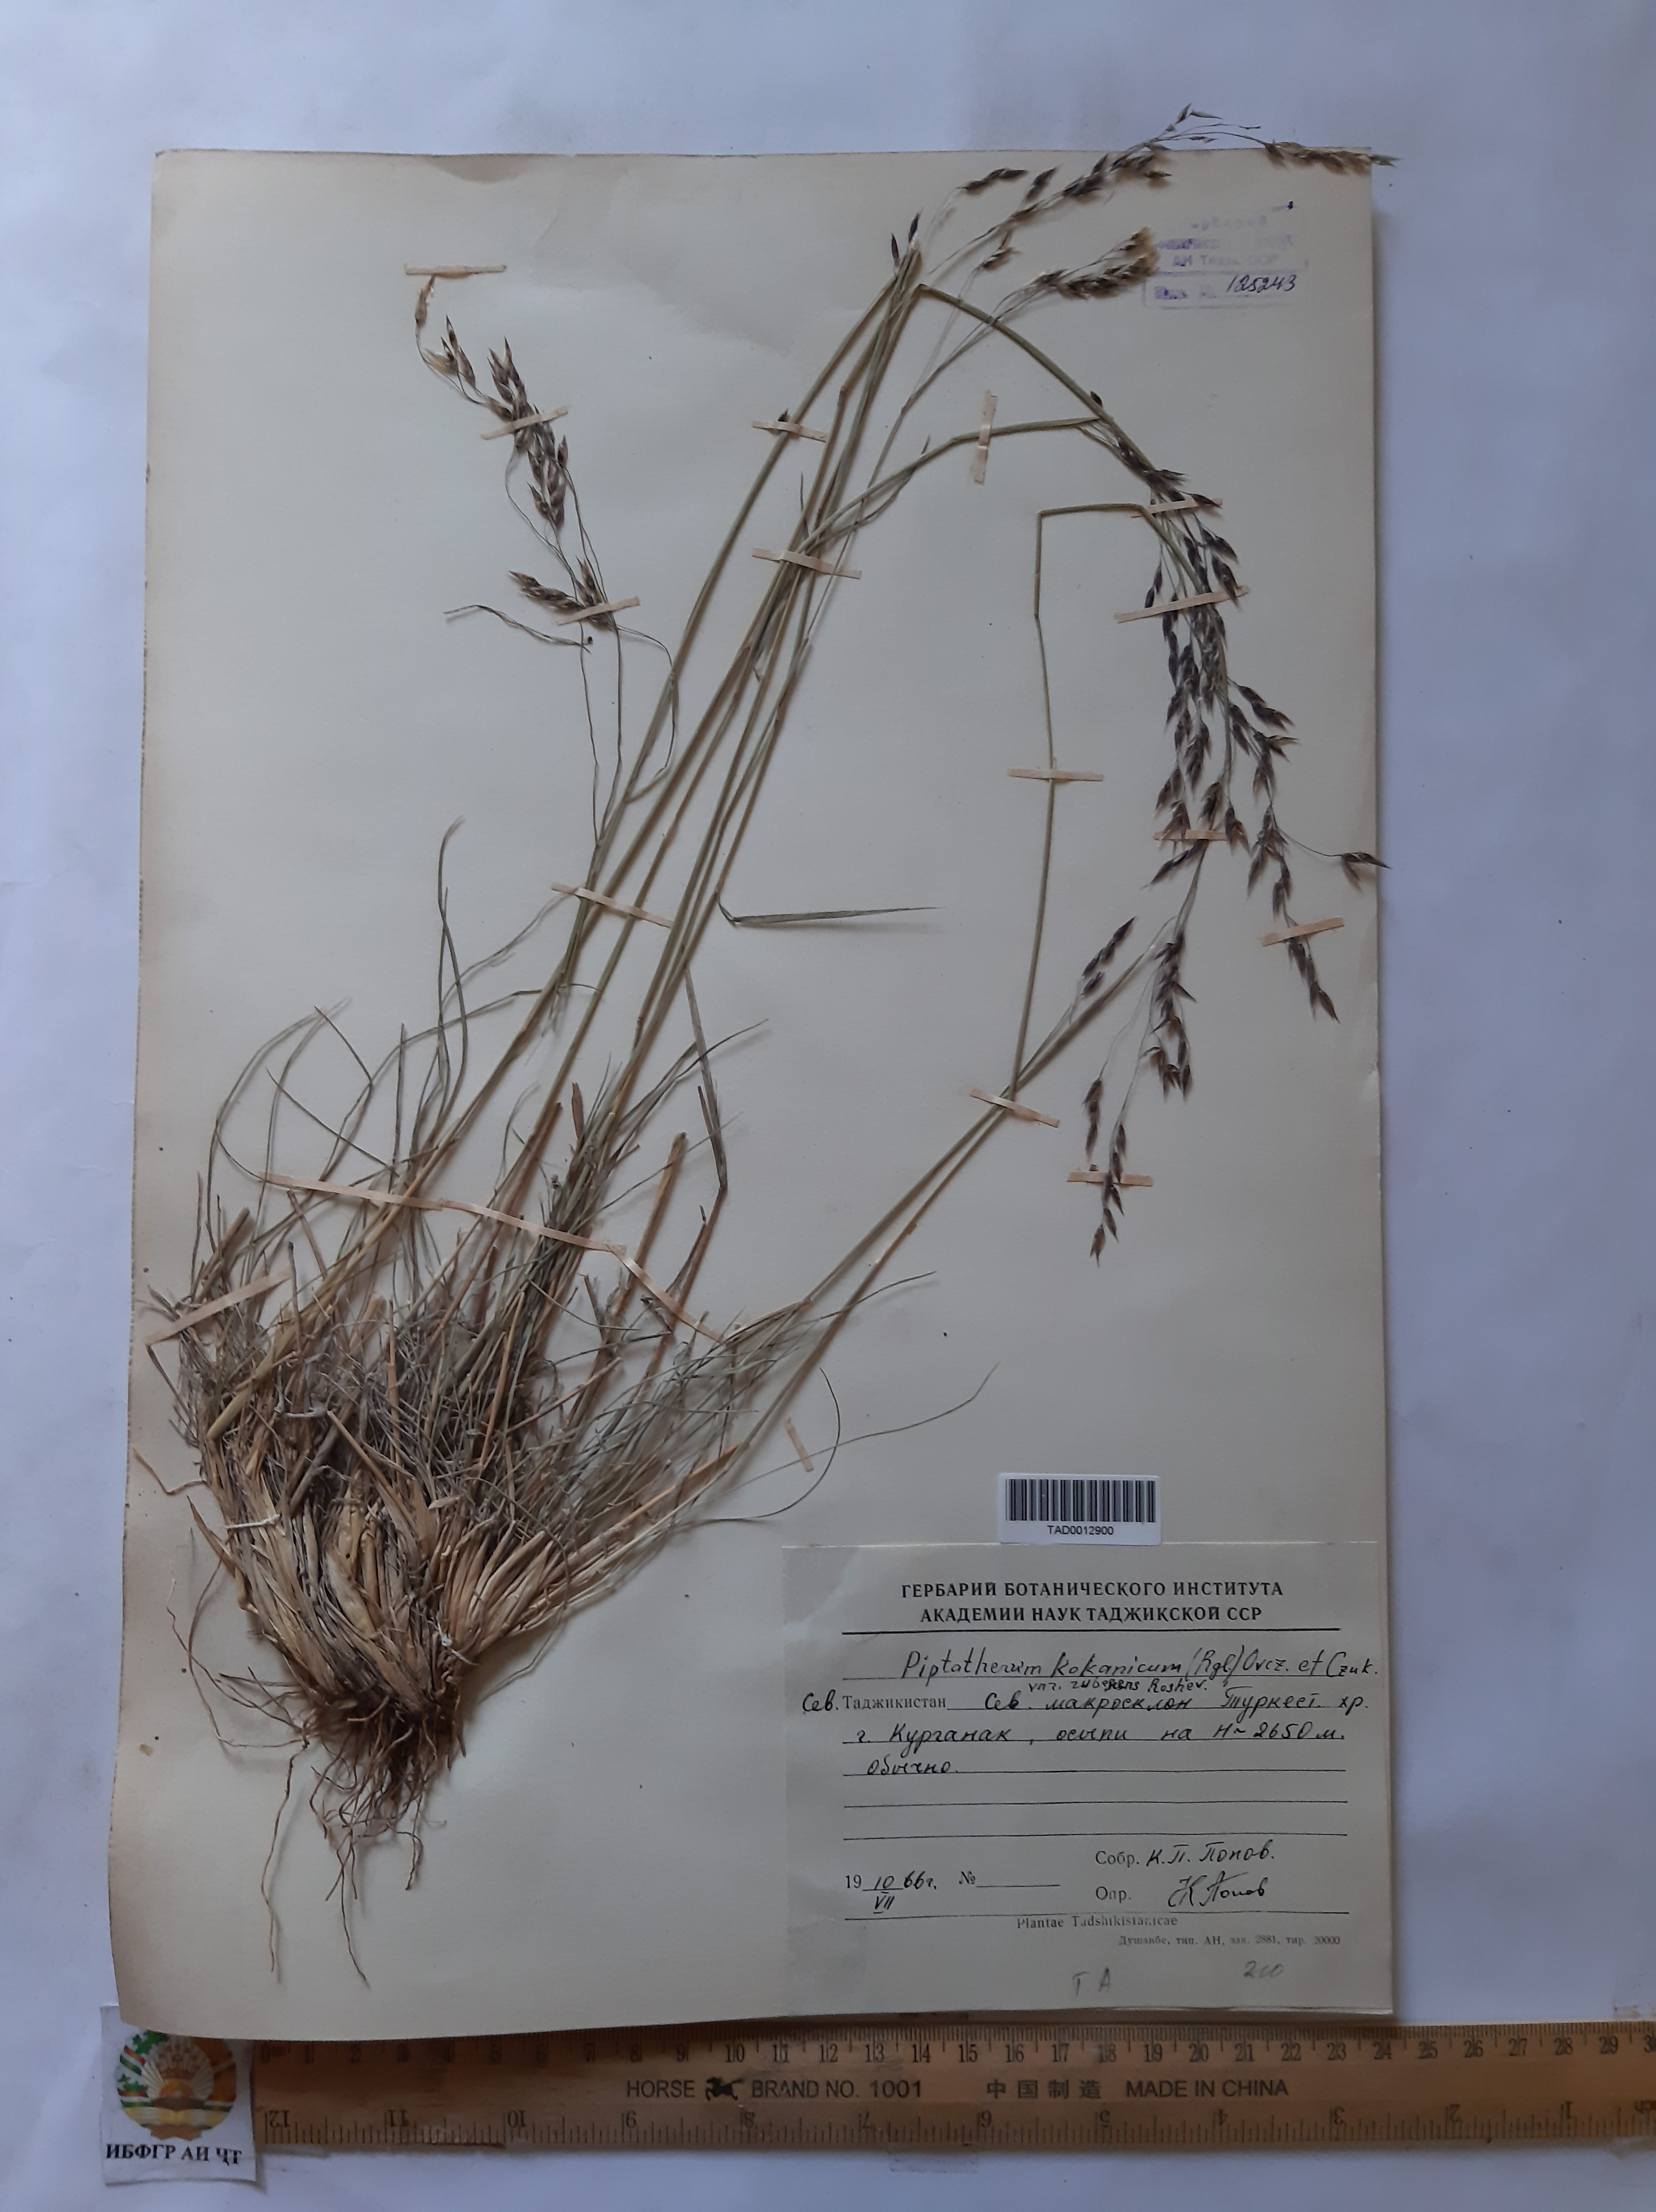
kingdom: Plantae
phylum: Tracheophyta
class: Liliopsida
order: Poales
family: Poaceae
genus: Piptatherum
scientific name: Piptatherum songaricum
